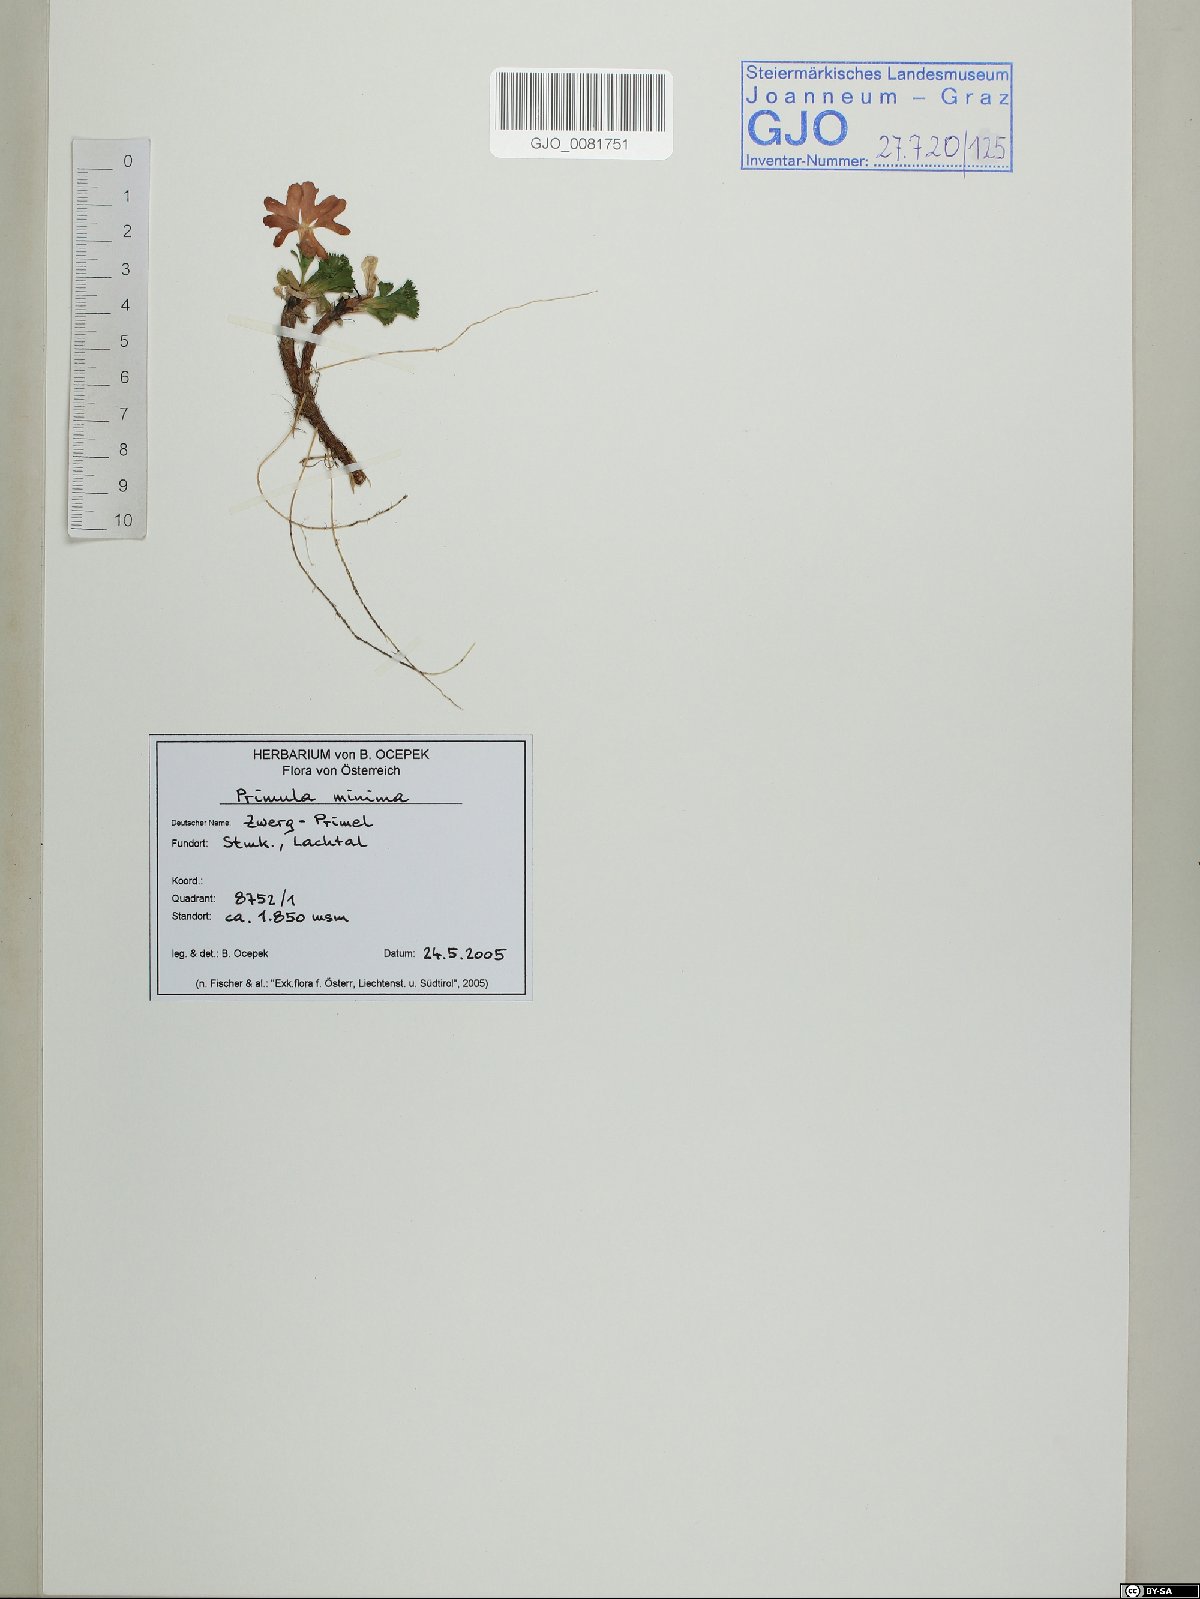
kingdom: Plantae
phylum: Tracheophyta
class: Magnoliopsida
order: Ericales
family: Primulaceae
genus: Primula
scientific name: Primula minima
